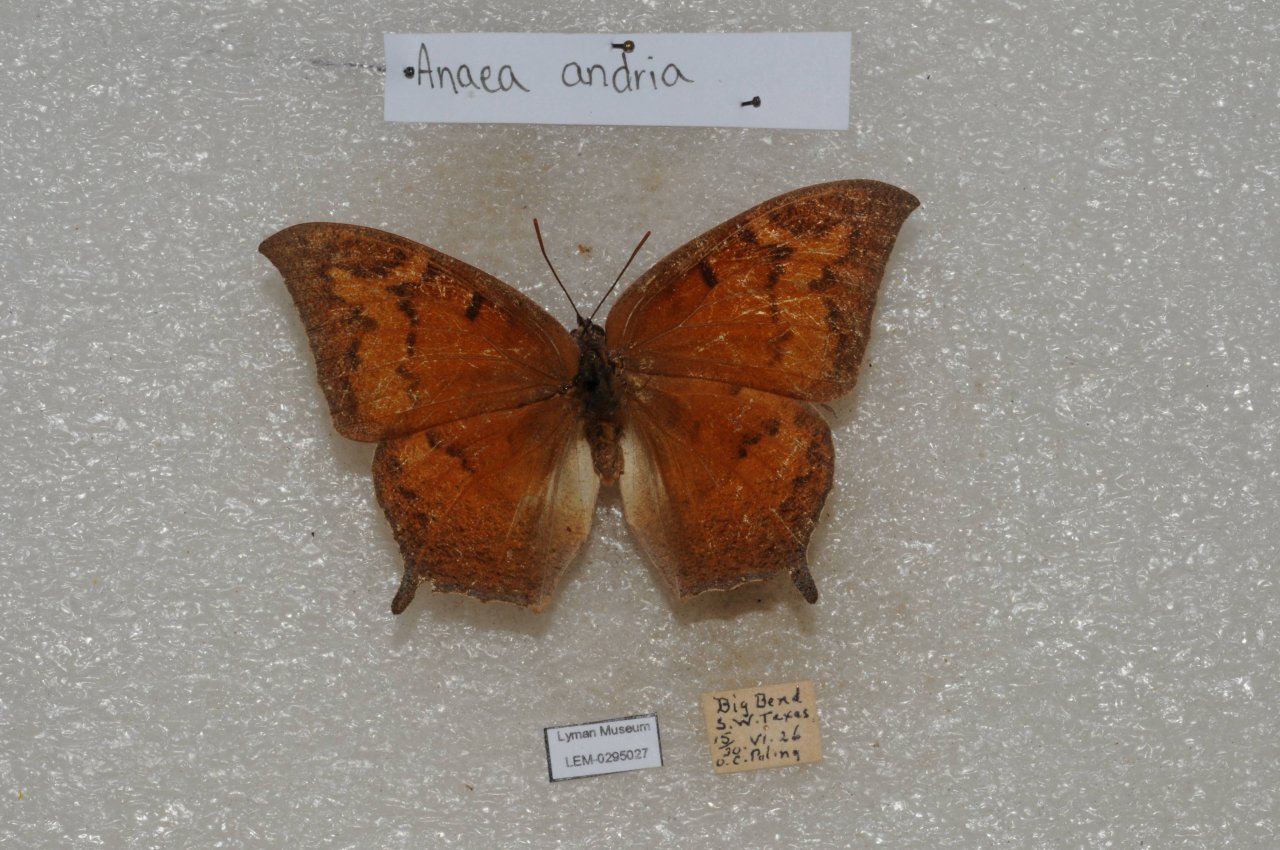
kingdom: Animalia
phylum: Arthropoda
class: Insecta
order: Lepidoptera
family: Nymphalidae
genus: Anaea
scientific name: Anaea andria
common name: Goatweed Leafwing
